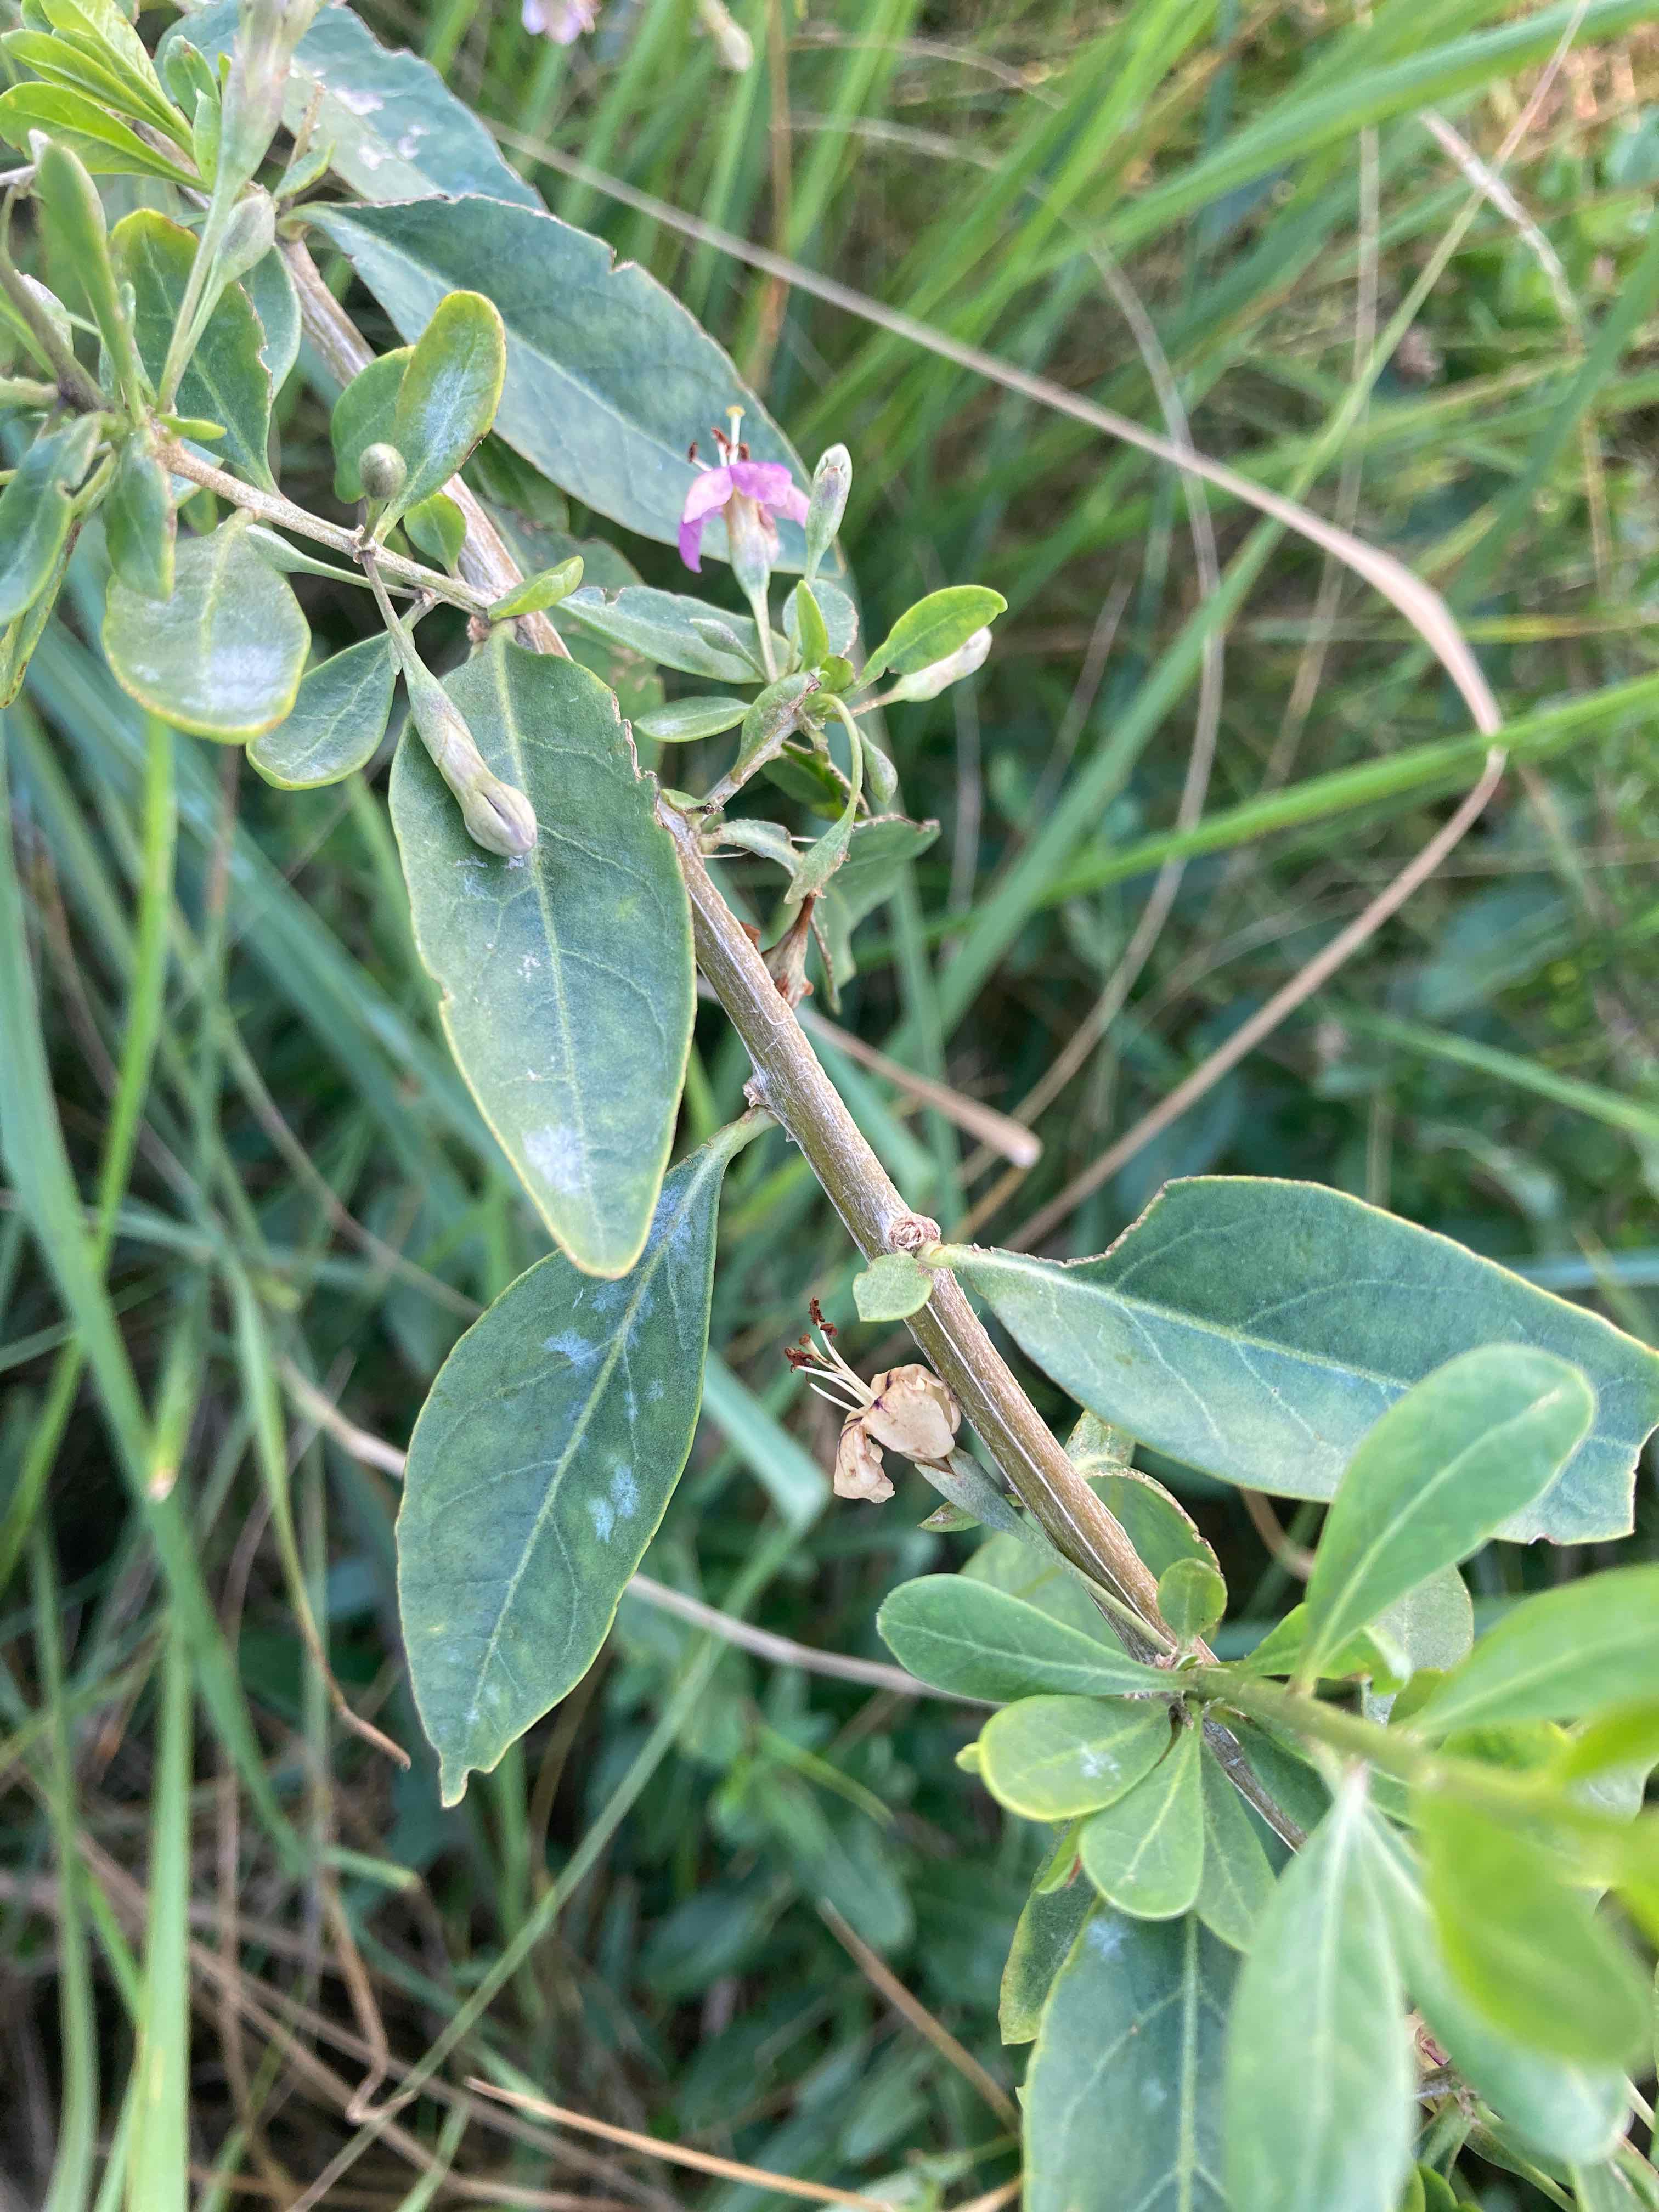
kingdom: Fungi
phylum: Ascomycota
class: Leotiomycetes
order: Helotiales
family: Erysiphaceae
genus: Erysiphe
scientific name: Erysiphe mougeotii
